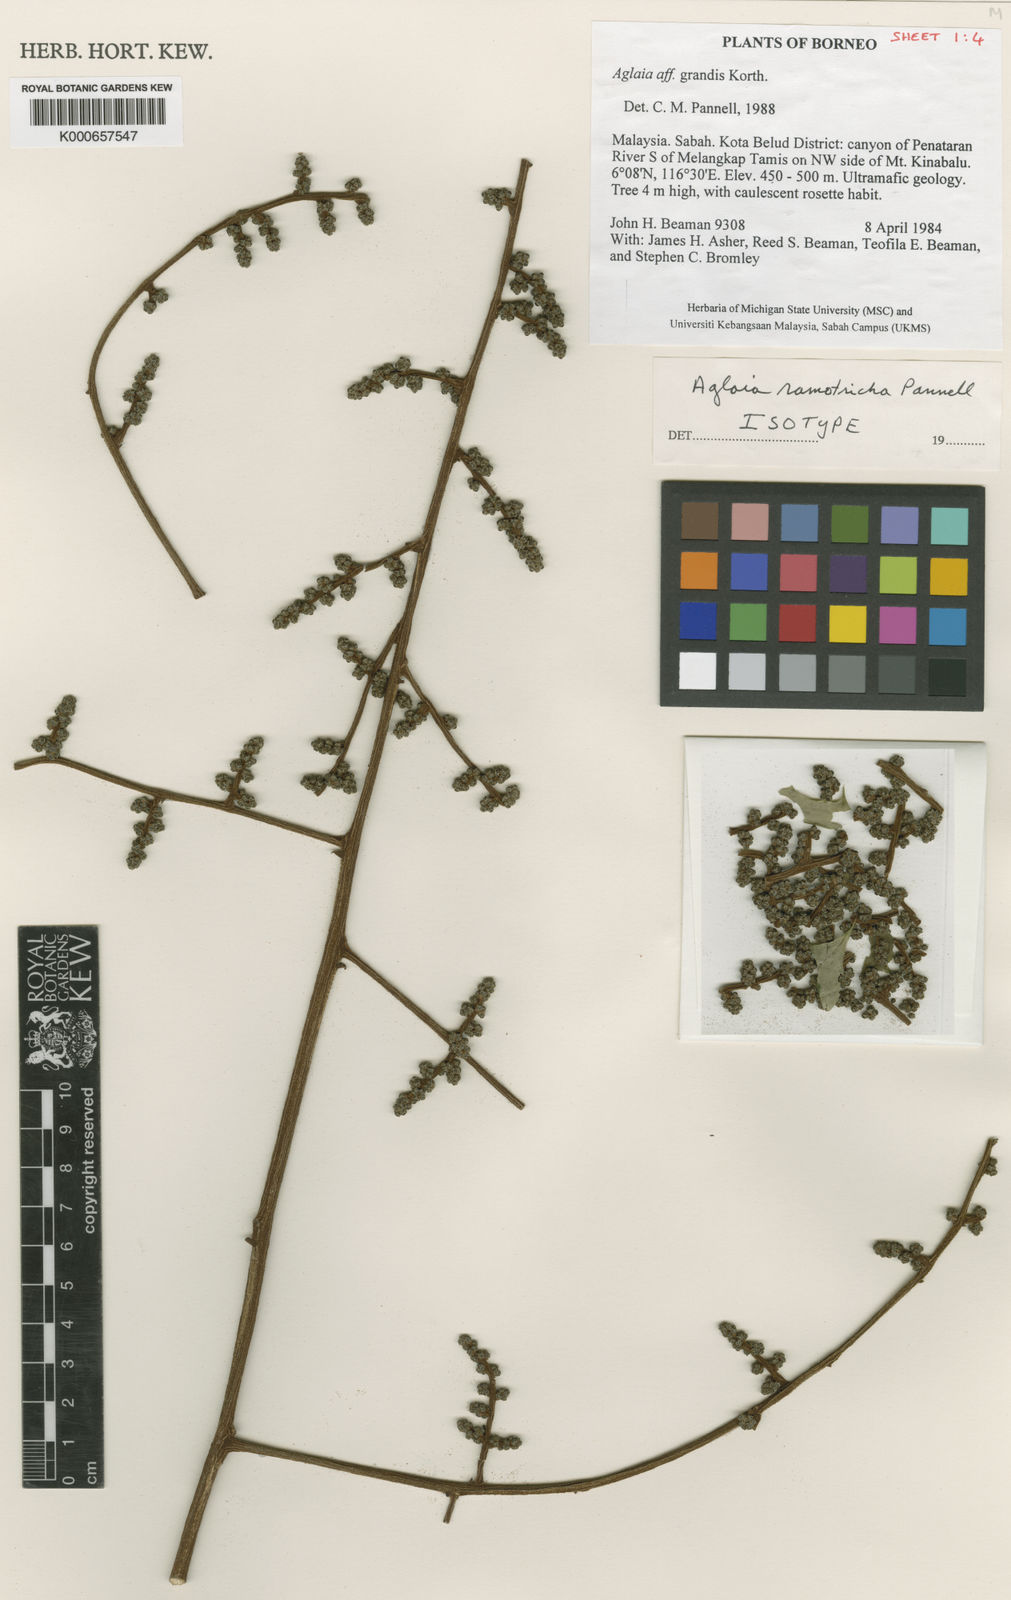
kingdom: Plantae
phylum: Tracheophyta
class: Magnoliopsida
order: Sapindales
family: Meliaceae
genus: Aglaia
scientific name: Aglaia ramotricha
